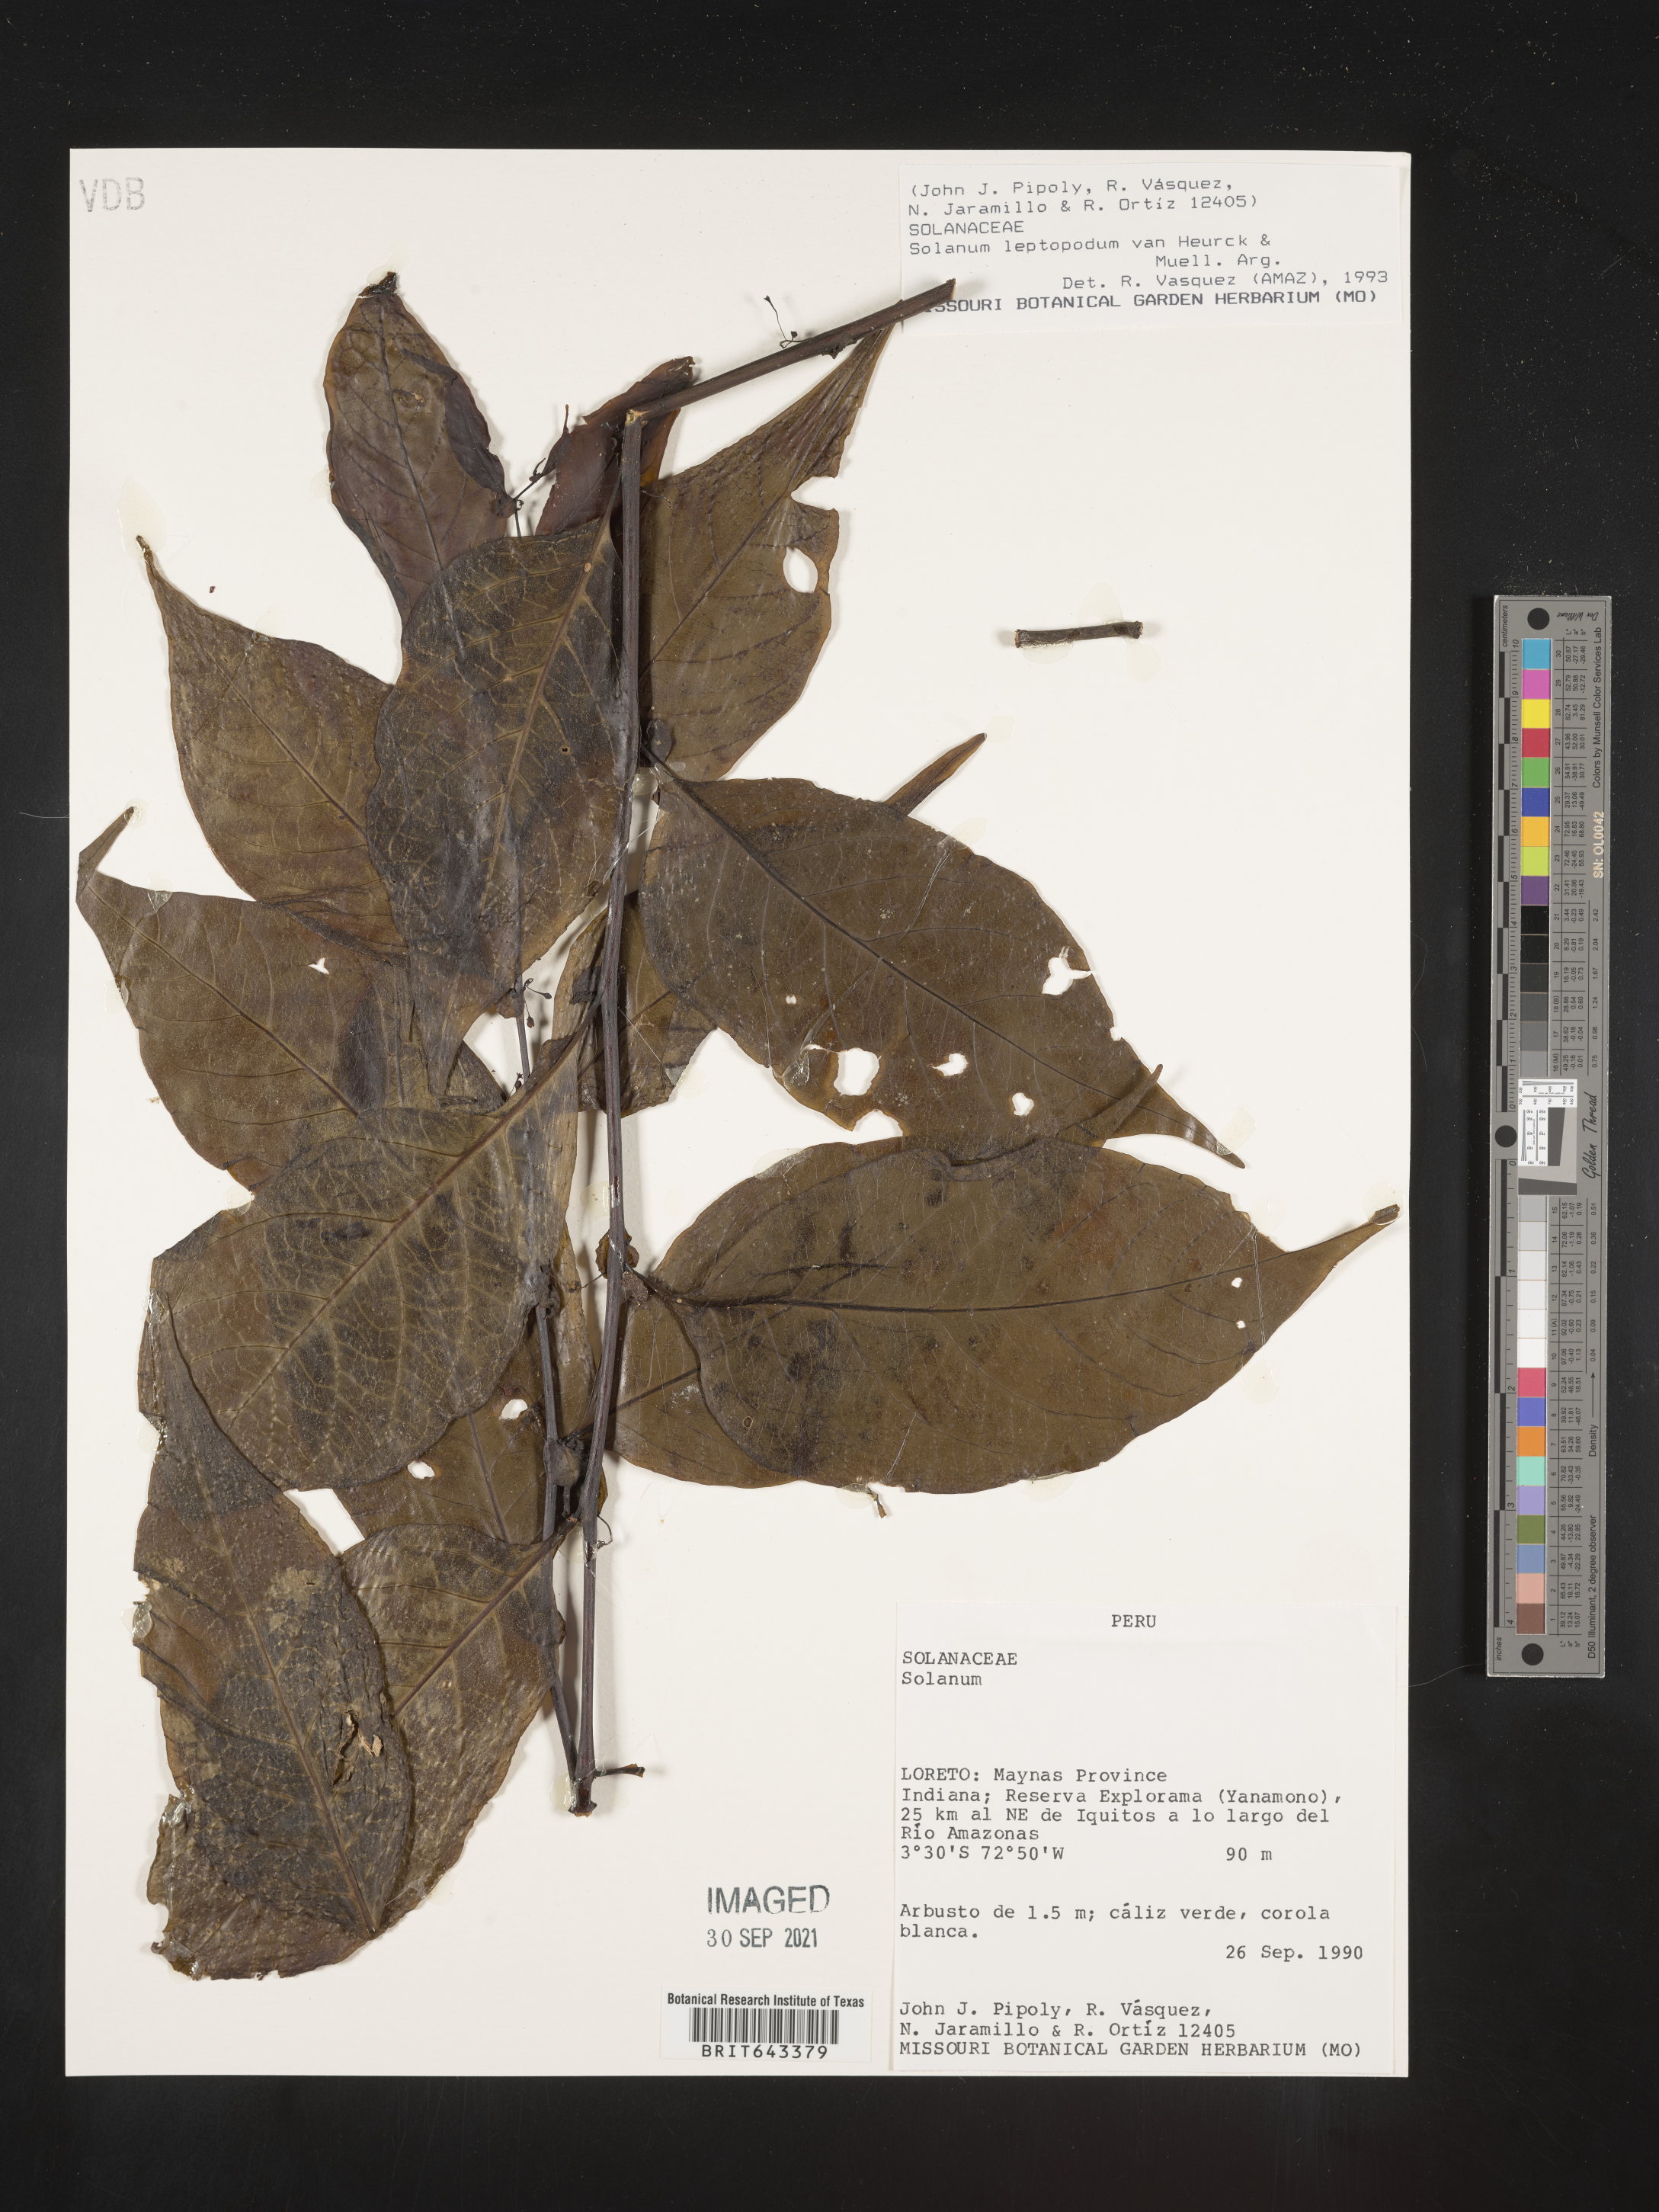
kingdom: Plantae
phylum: Tracheophyta
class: Magnoliopsida
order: Solanales
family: Solanaceae
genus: Solanum
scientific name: Solanum
